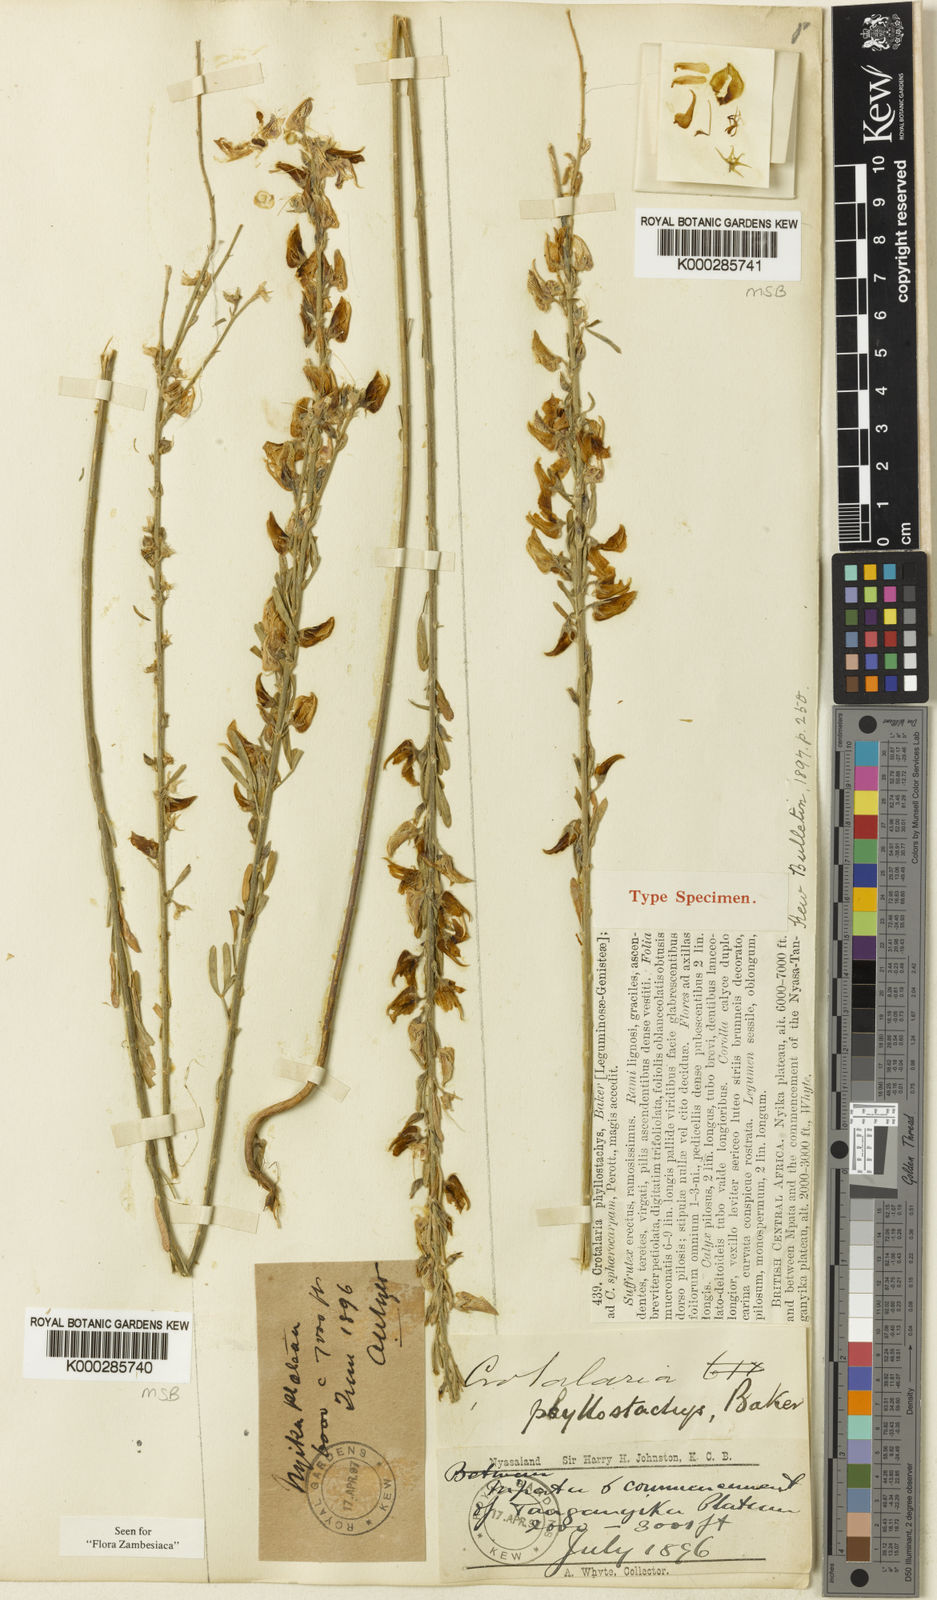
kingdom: Plantae
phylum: Tracheophyta
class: Magnoliopsida
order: Fabales
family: Fabaceae
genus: Crotalaria
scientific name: Crotalaria phyllostachys
